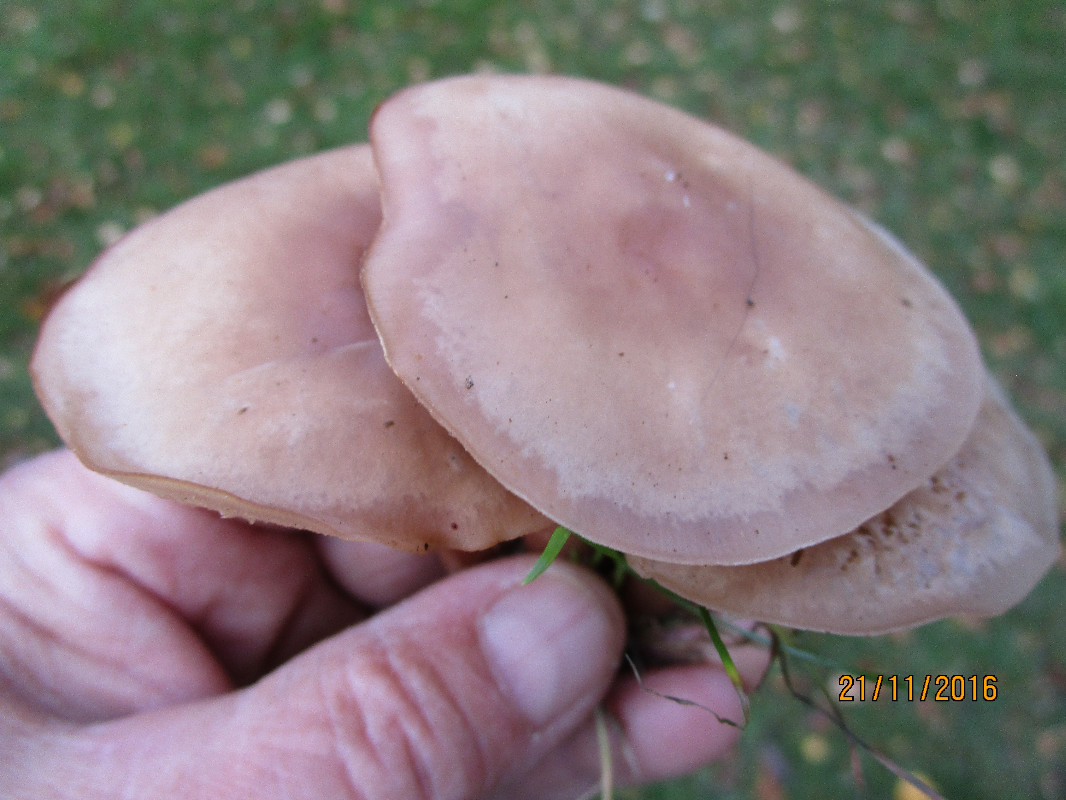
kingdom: Fungi
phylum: Basidiomycota
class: Agaricomycetes
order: Agaricales
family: Tricholomataceae
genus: Clitocybe
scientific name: Clitocybe fragrans
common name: vellugtende tragthat
